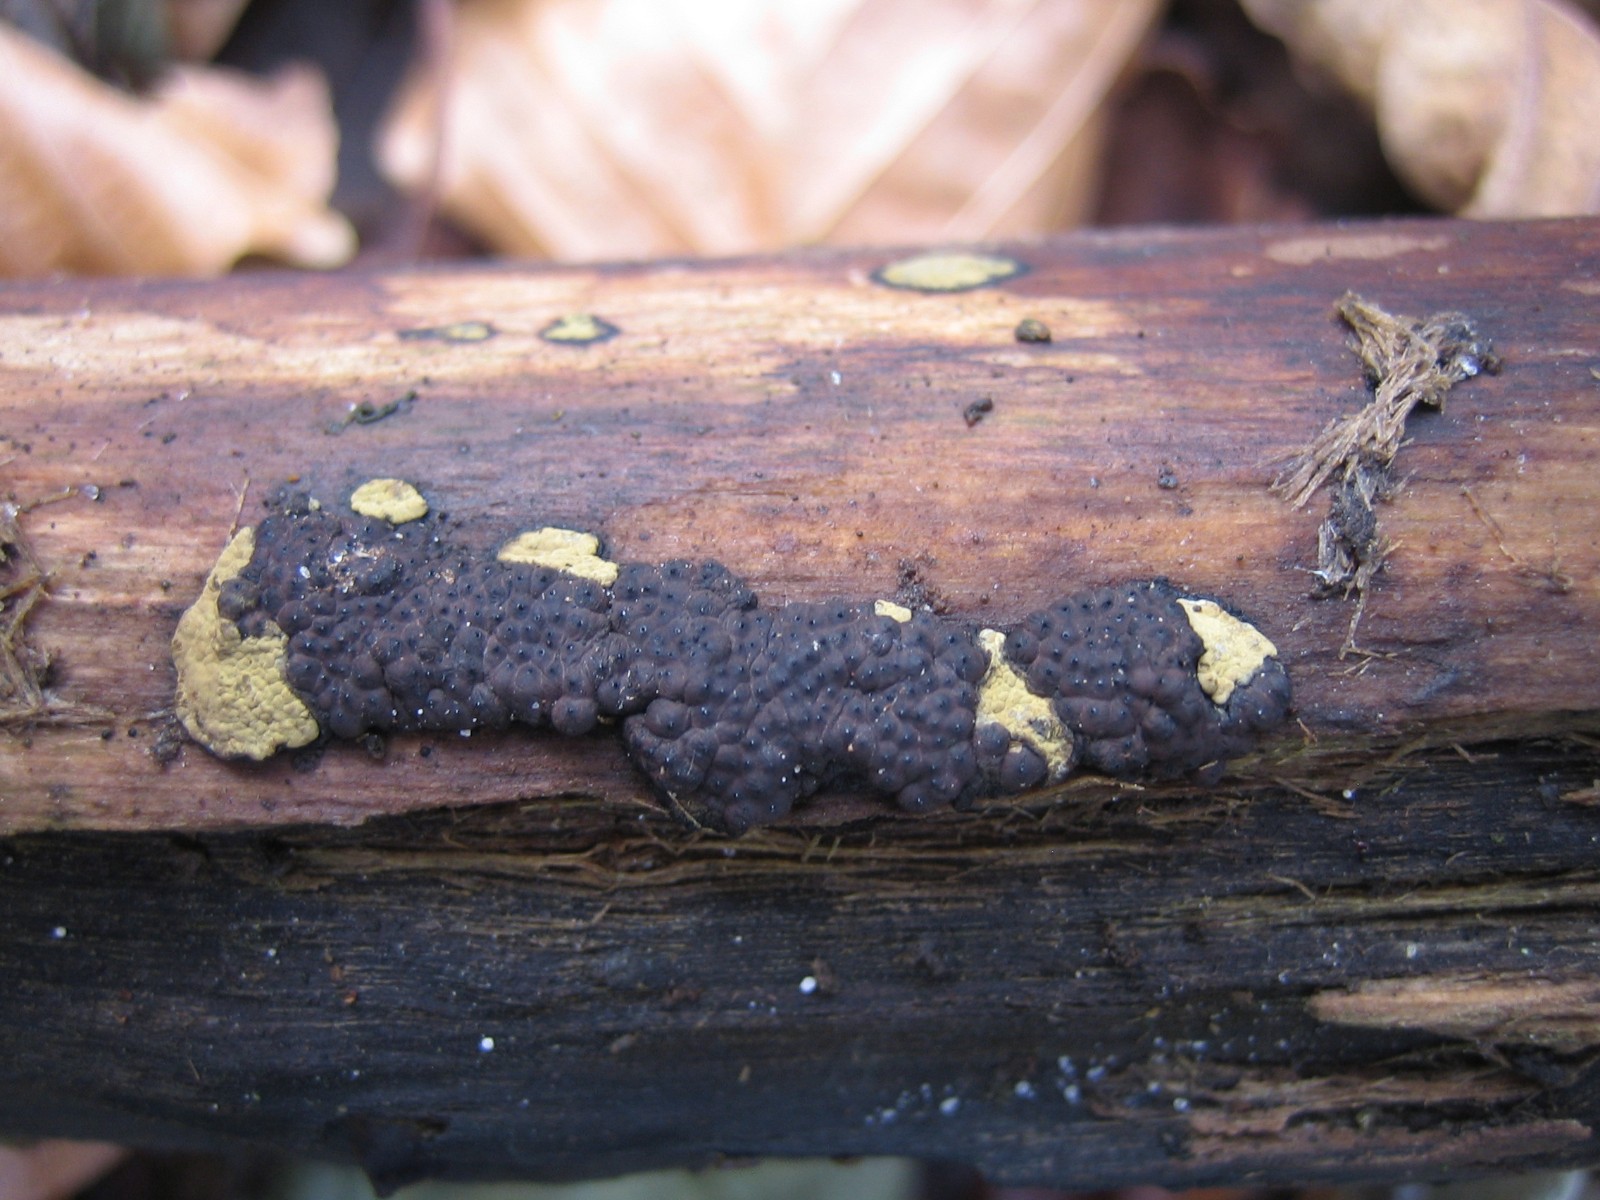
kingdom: Fungi
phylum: Ascomycota
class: Sordariomycetes
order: Xylariales
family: Hypoxylaceae
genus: Jackrogersella
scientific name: Jackrogersella multiformis
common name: foranderlig kulbær
